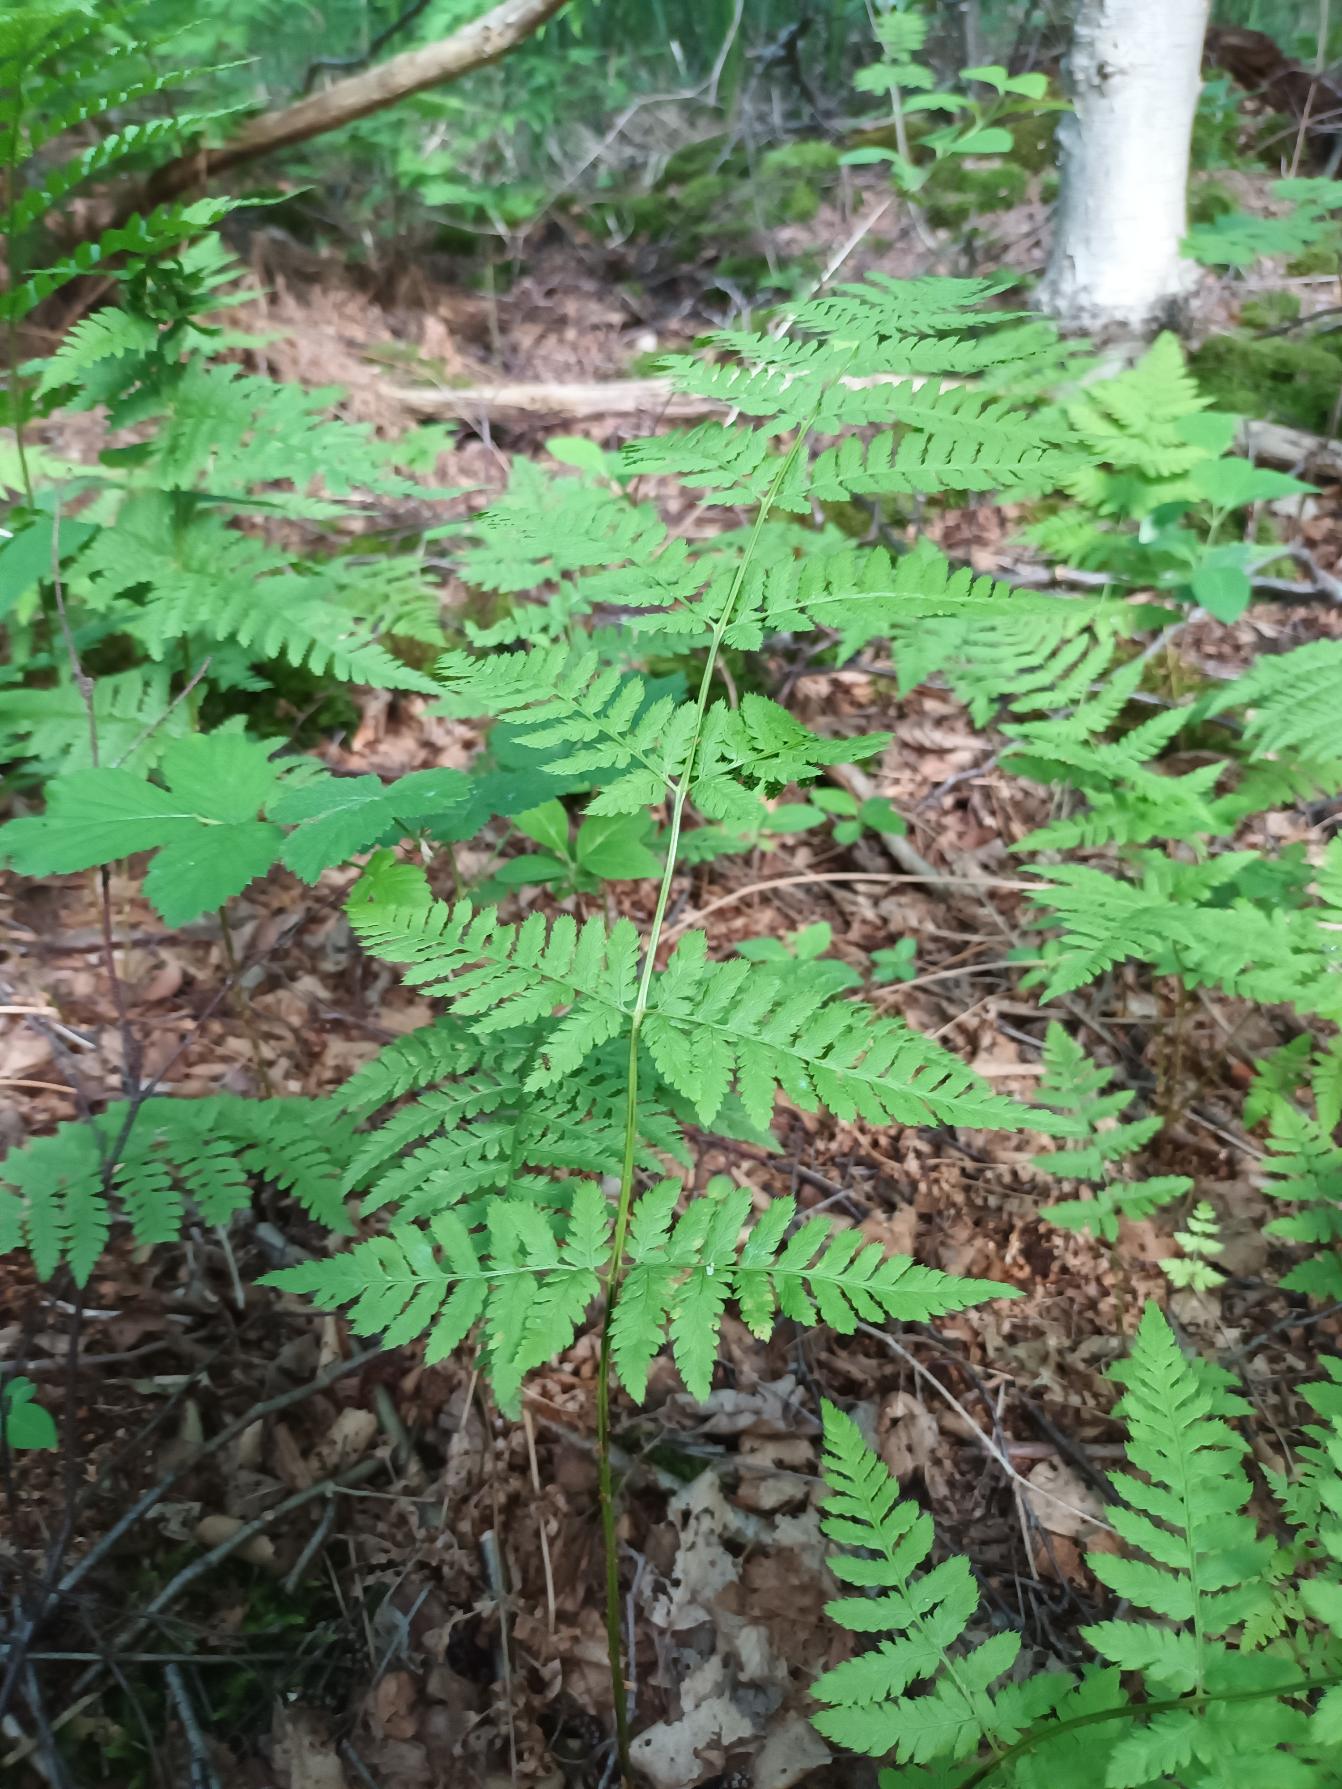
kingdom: Plantae
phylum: Tracheophyta
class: Polypodiopsida
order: Polypodiales
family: Dryopteridaceae
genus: Dryopteris
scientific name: Dryopteris carthusiana
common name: Smalbladet mangeløv
